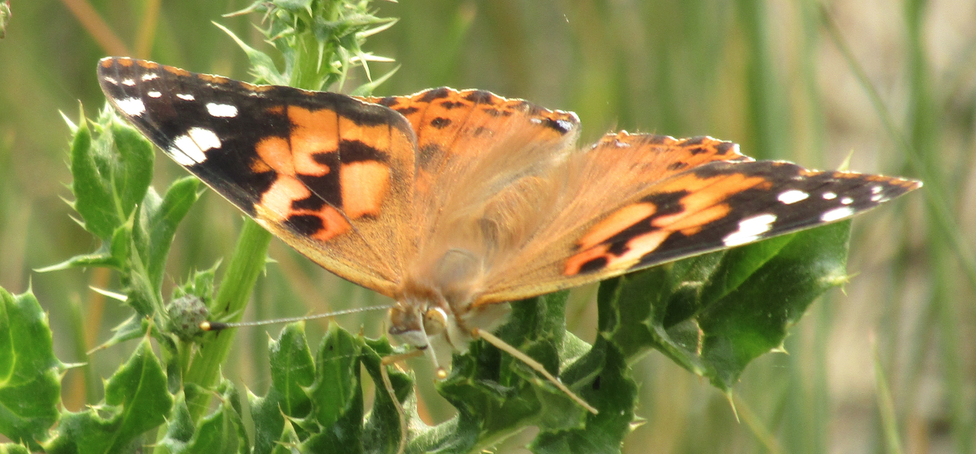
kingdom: Animalia
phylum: Arthropoda
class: Insecta
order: Lepidoptera
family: Nymphalidae
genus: Vanessa
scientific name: Vanessa cardui
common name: Painted Lady
